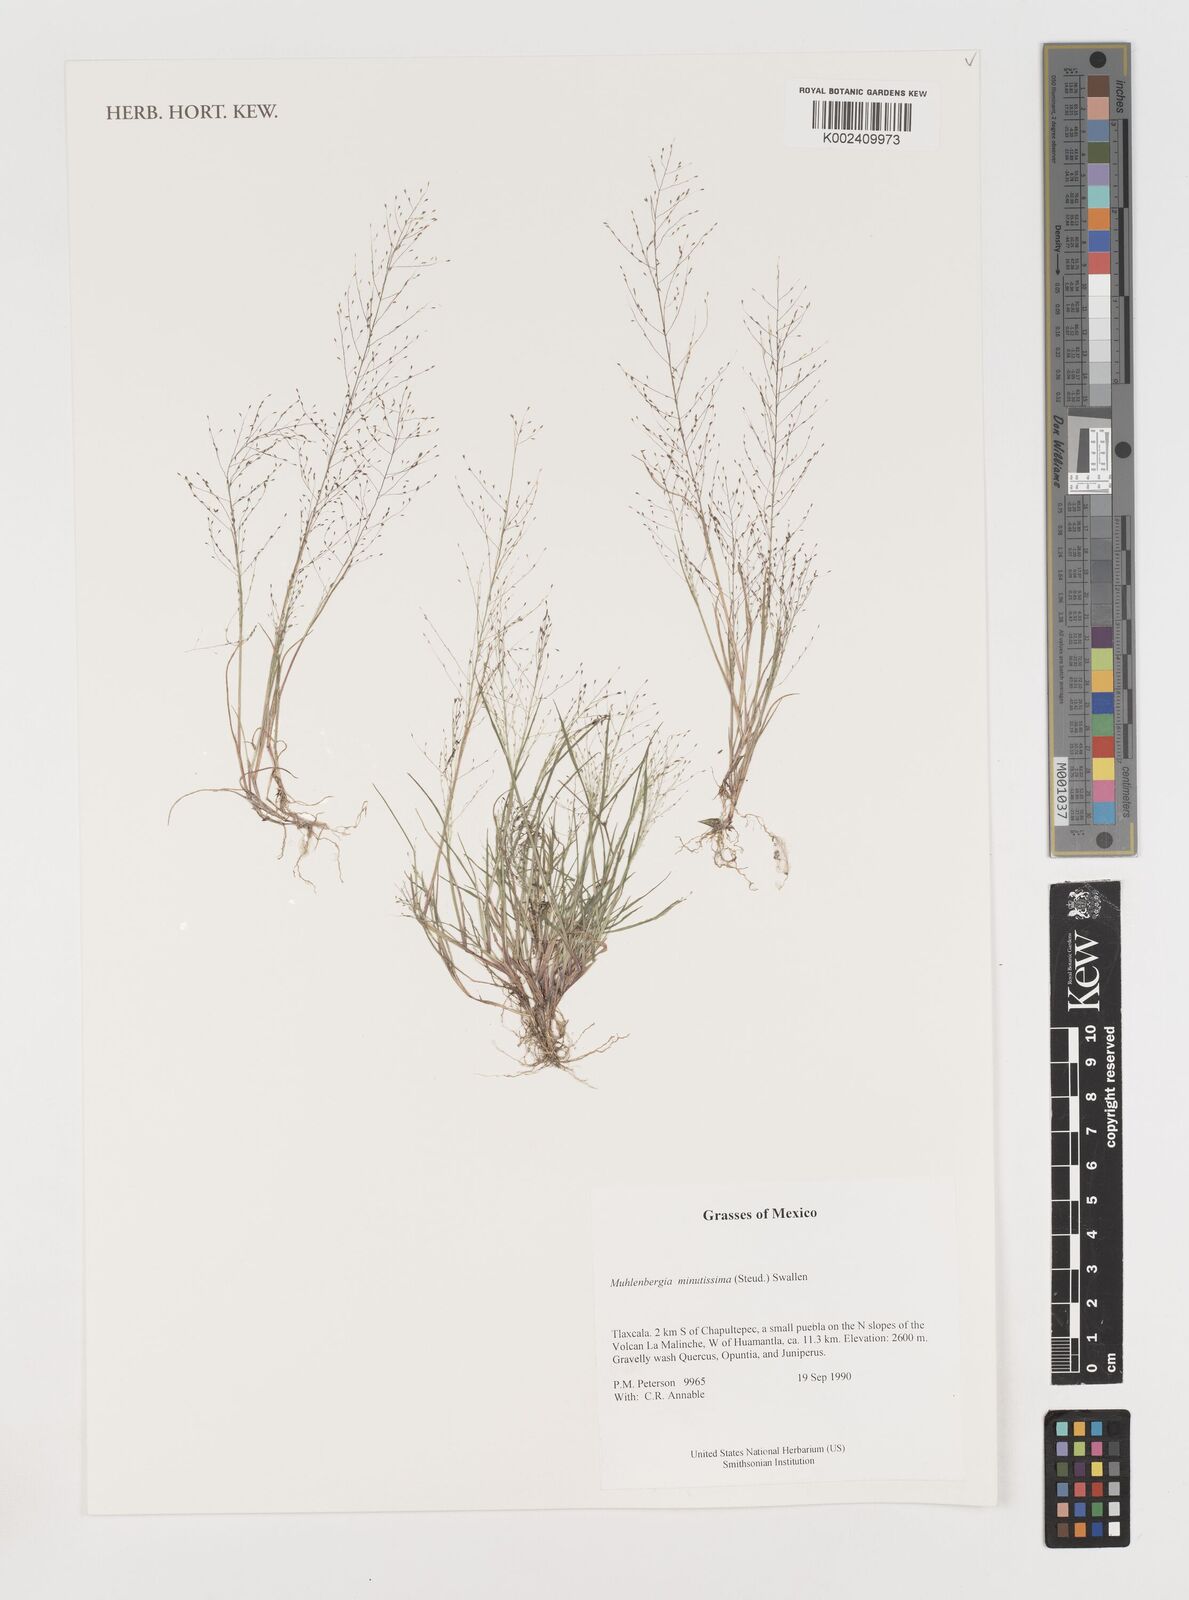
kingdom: Plantae
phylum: Tracheophyta
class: Liliopsida
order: Poales
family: Poaceae
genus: Muhlenbergia
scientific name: Muhlenbergia minutissima
